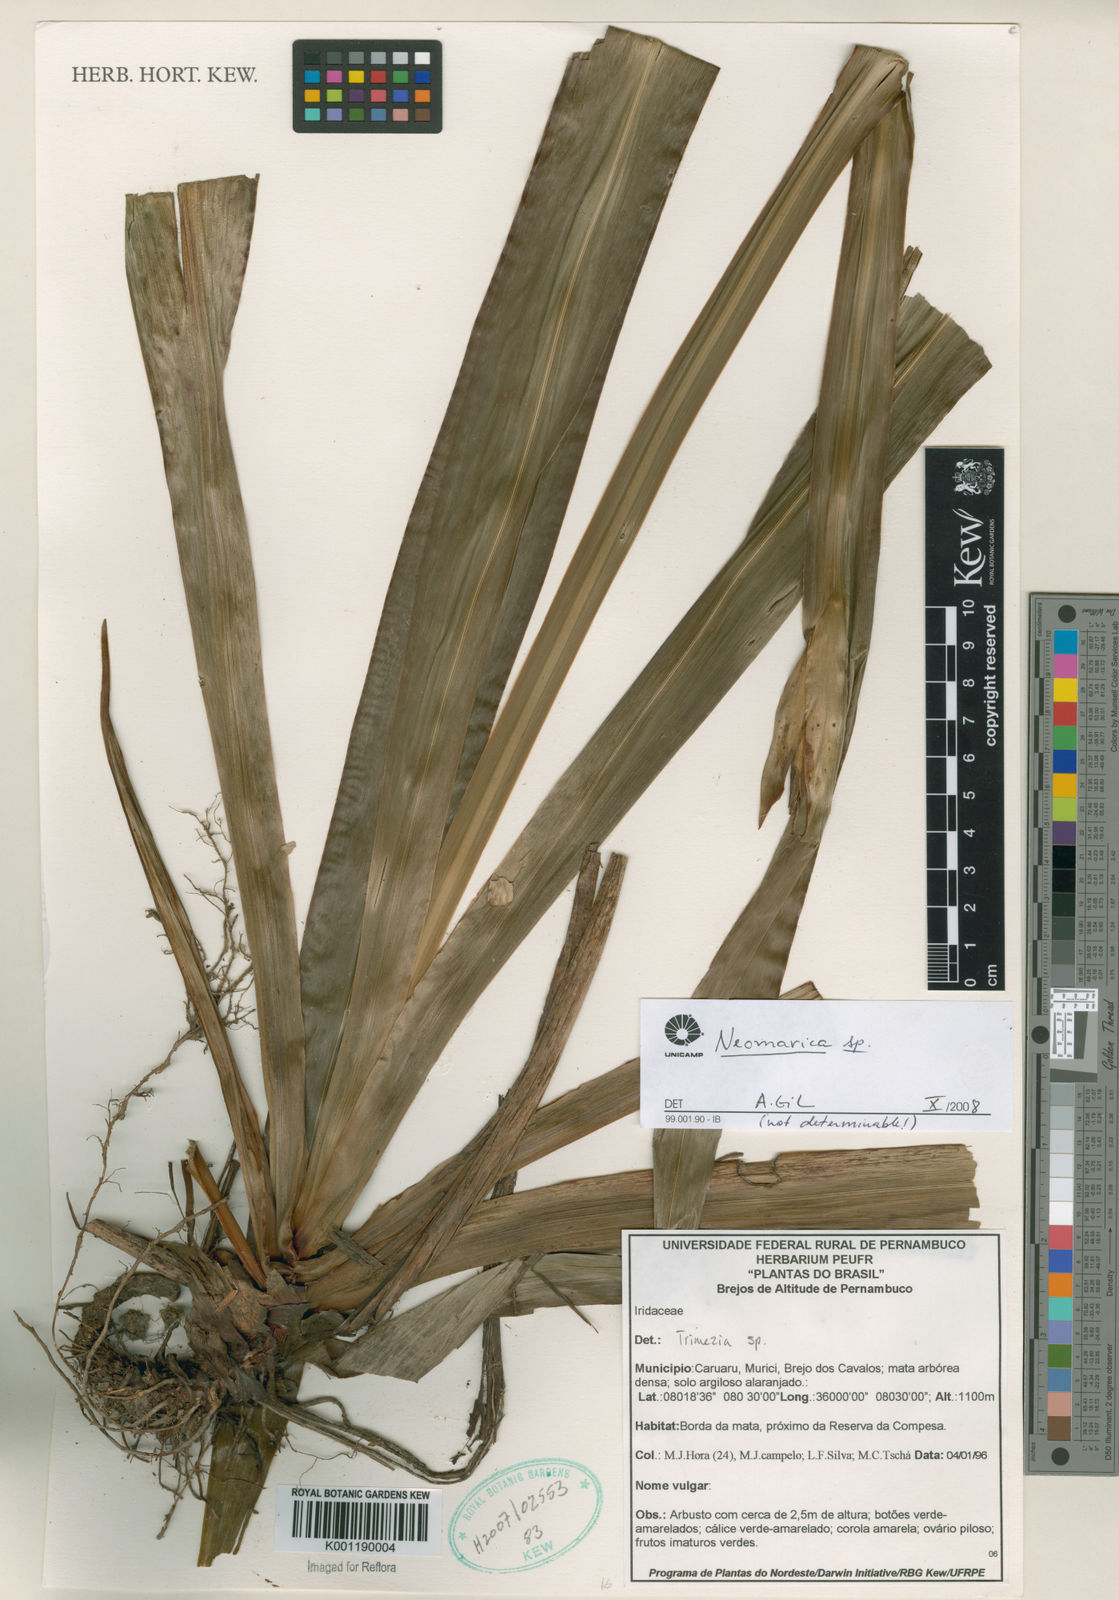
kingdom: Plantae
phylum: Tracheophyta
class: Liliopsida
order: Asparagales
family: Iridaceae
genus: Trimezia
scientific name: Trimezia
